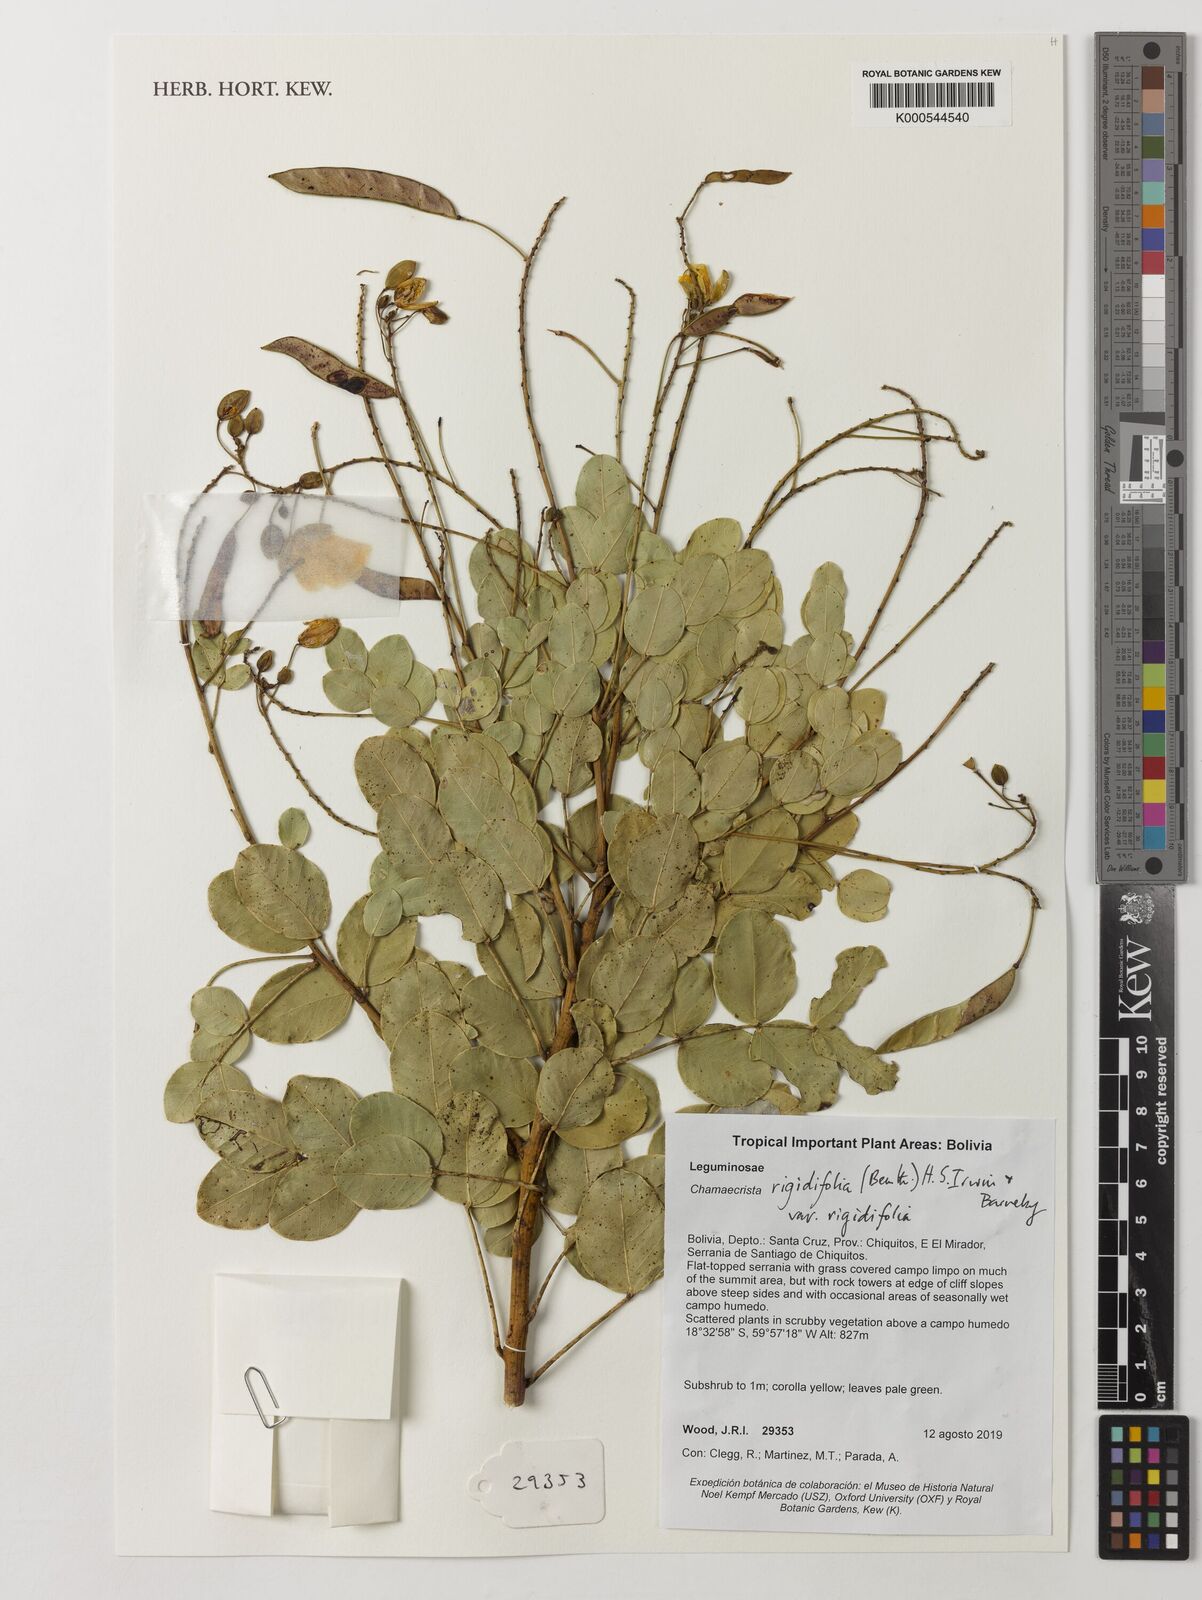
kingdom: Plantae
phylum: Tracheophyta
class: Magnoliopsida
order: Fabales
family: Fabaceae
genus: Chamaecrista
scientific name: Chamaecrista rigidifolia
